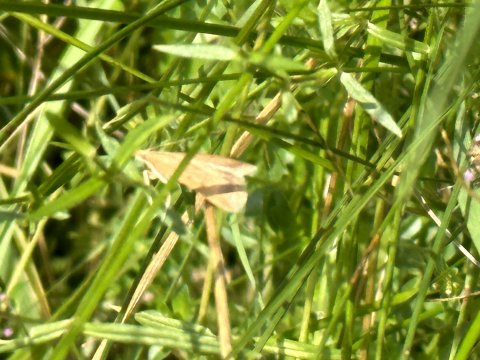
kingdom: Animalia
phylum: Arthropoda
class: Insecta
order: Lepidoptera
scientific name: Lepidoptera
